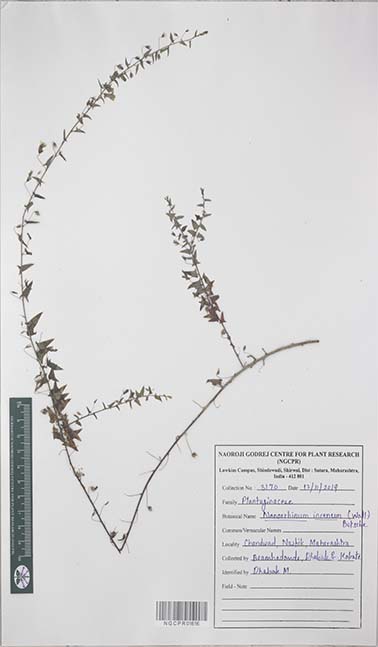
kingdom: Plantae
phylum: Tracheophyta
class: Magnoliopsida
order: Lamiales
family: Plantaginaceae
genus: Nanorrhinum
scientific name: Nanorrhinum incanum
